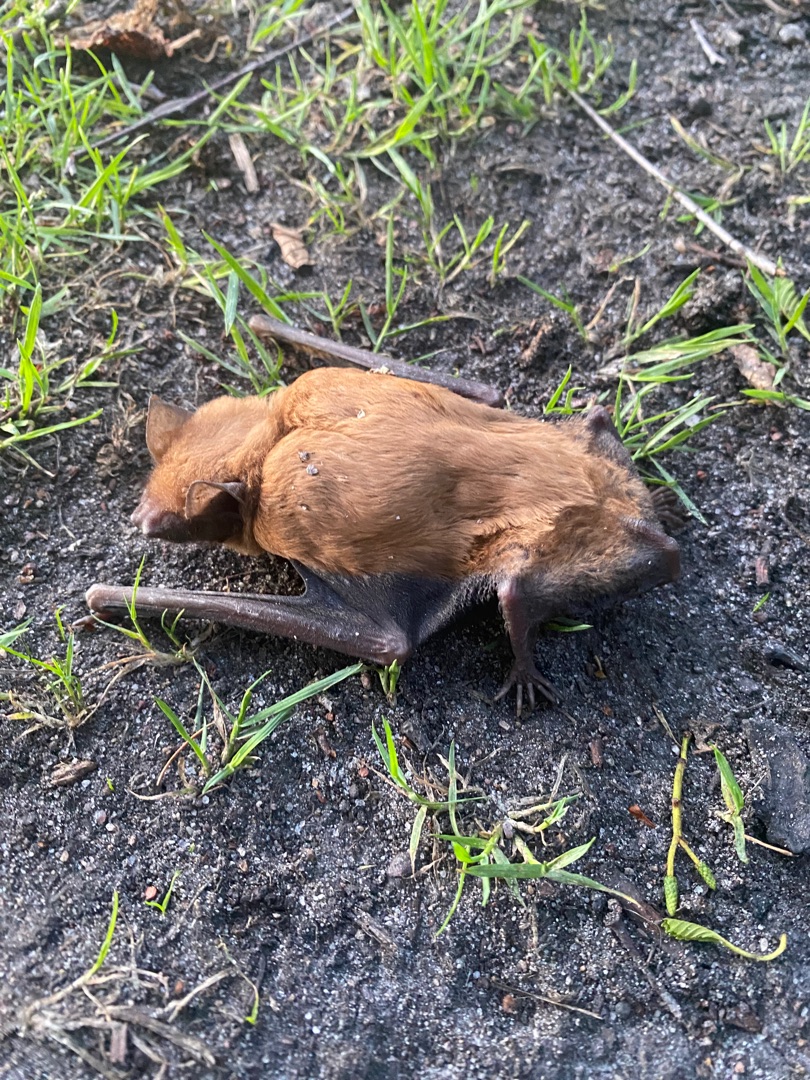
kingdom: Animalia
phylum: Chordata
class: Mammalia
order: Chiroptera
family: Vespertilionidae
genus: Nyctalus
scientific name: Nyctalus noctula
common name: Brunflagermus
